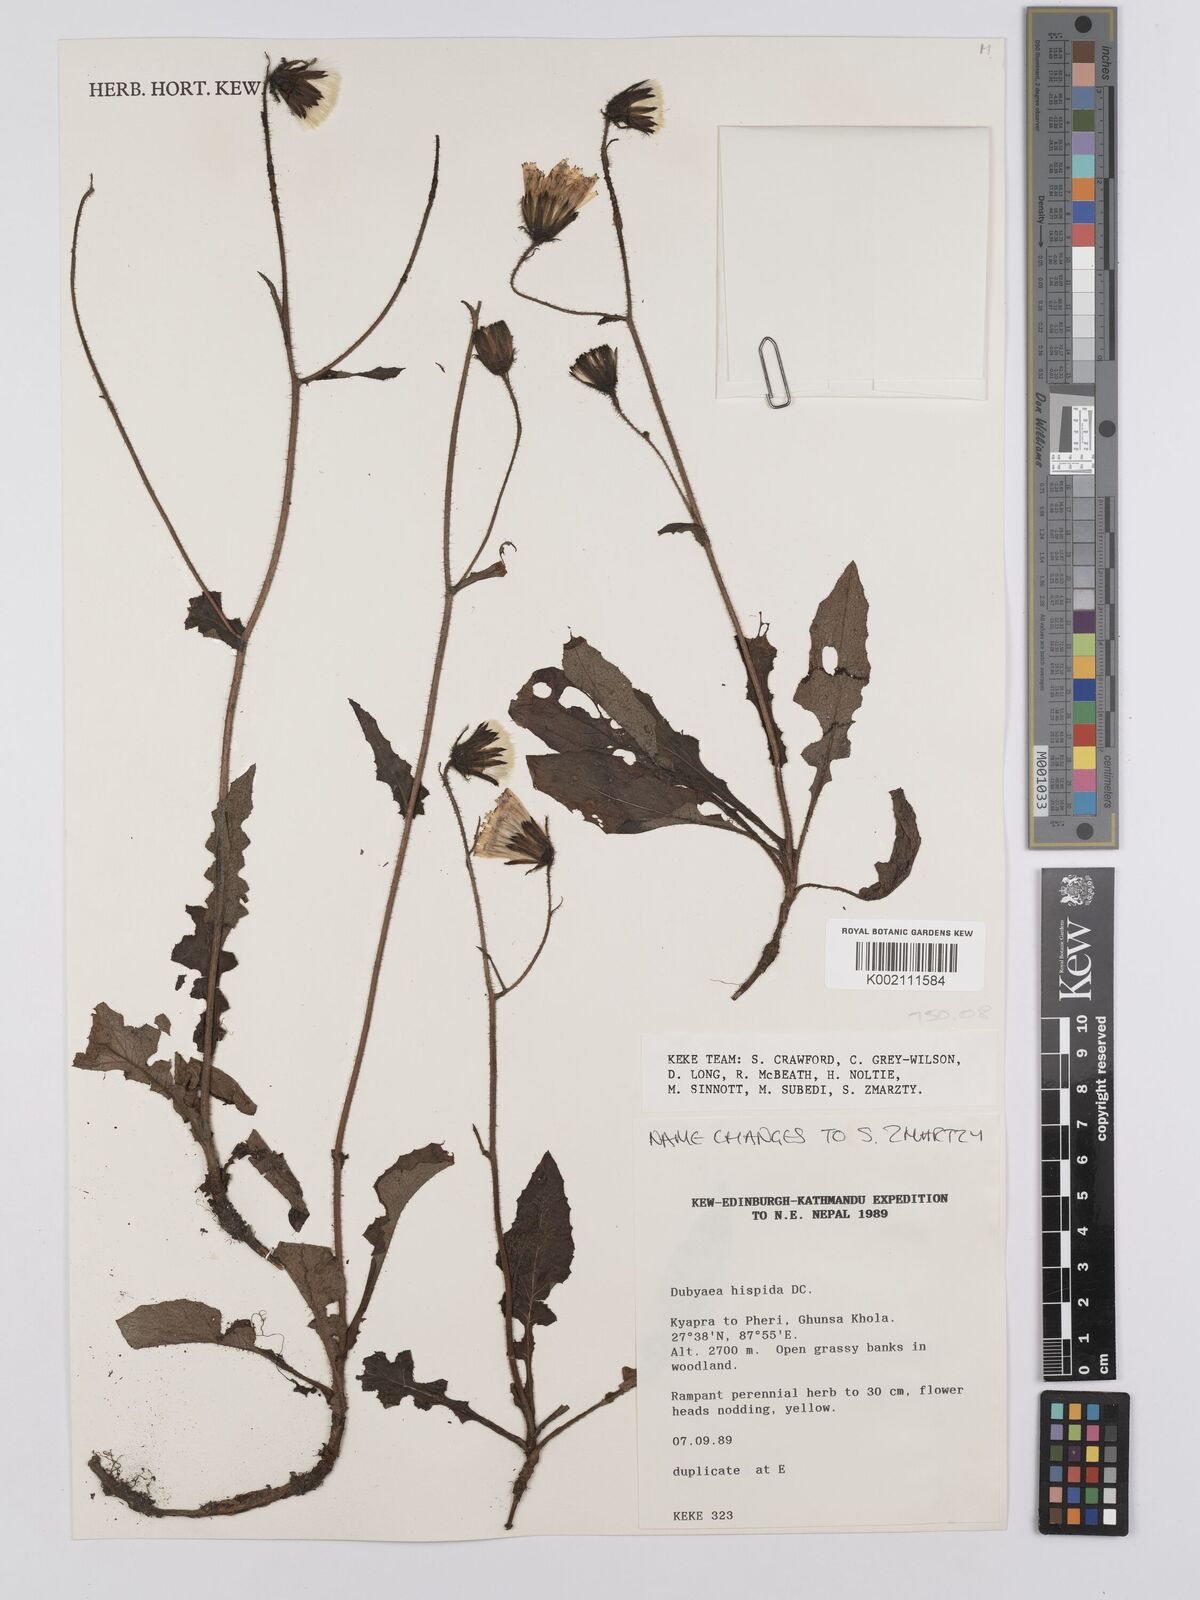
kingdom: Plantae
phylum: Tracheophyta
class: Magnoliopsida
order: Asterales
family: Asteraceae
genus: Dubyaea
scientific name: Dubyaea hispida
